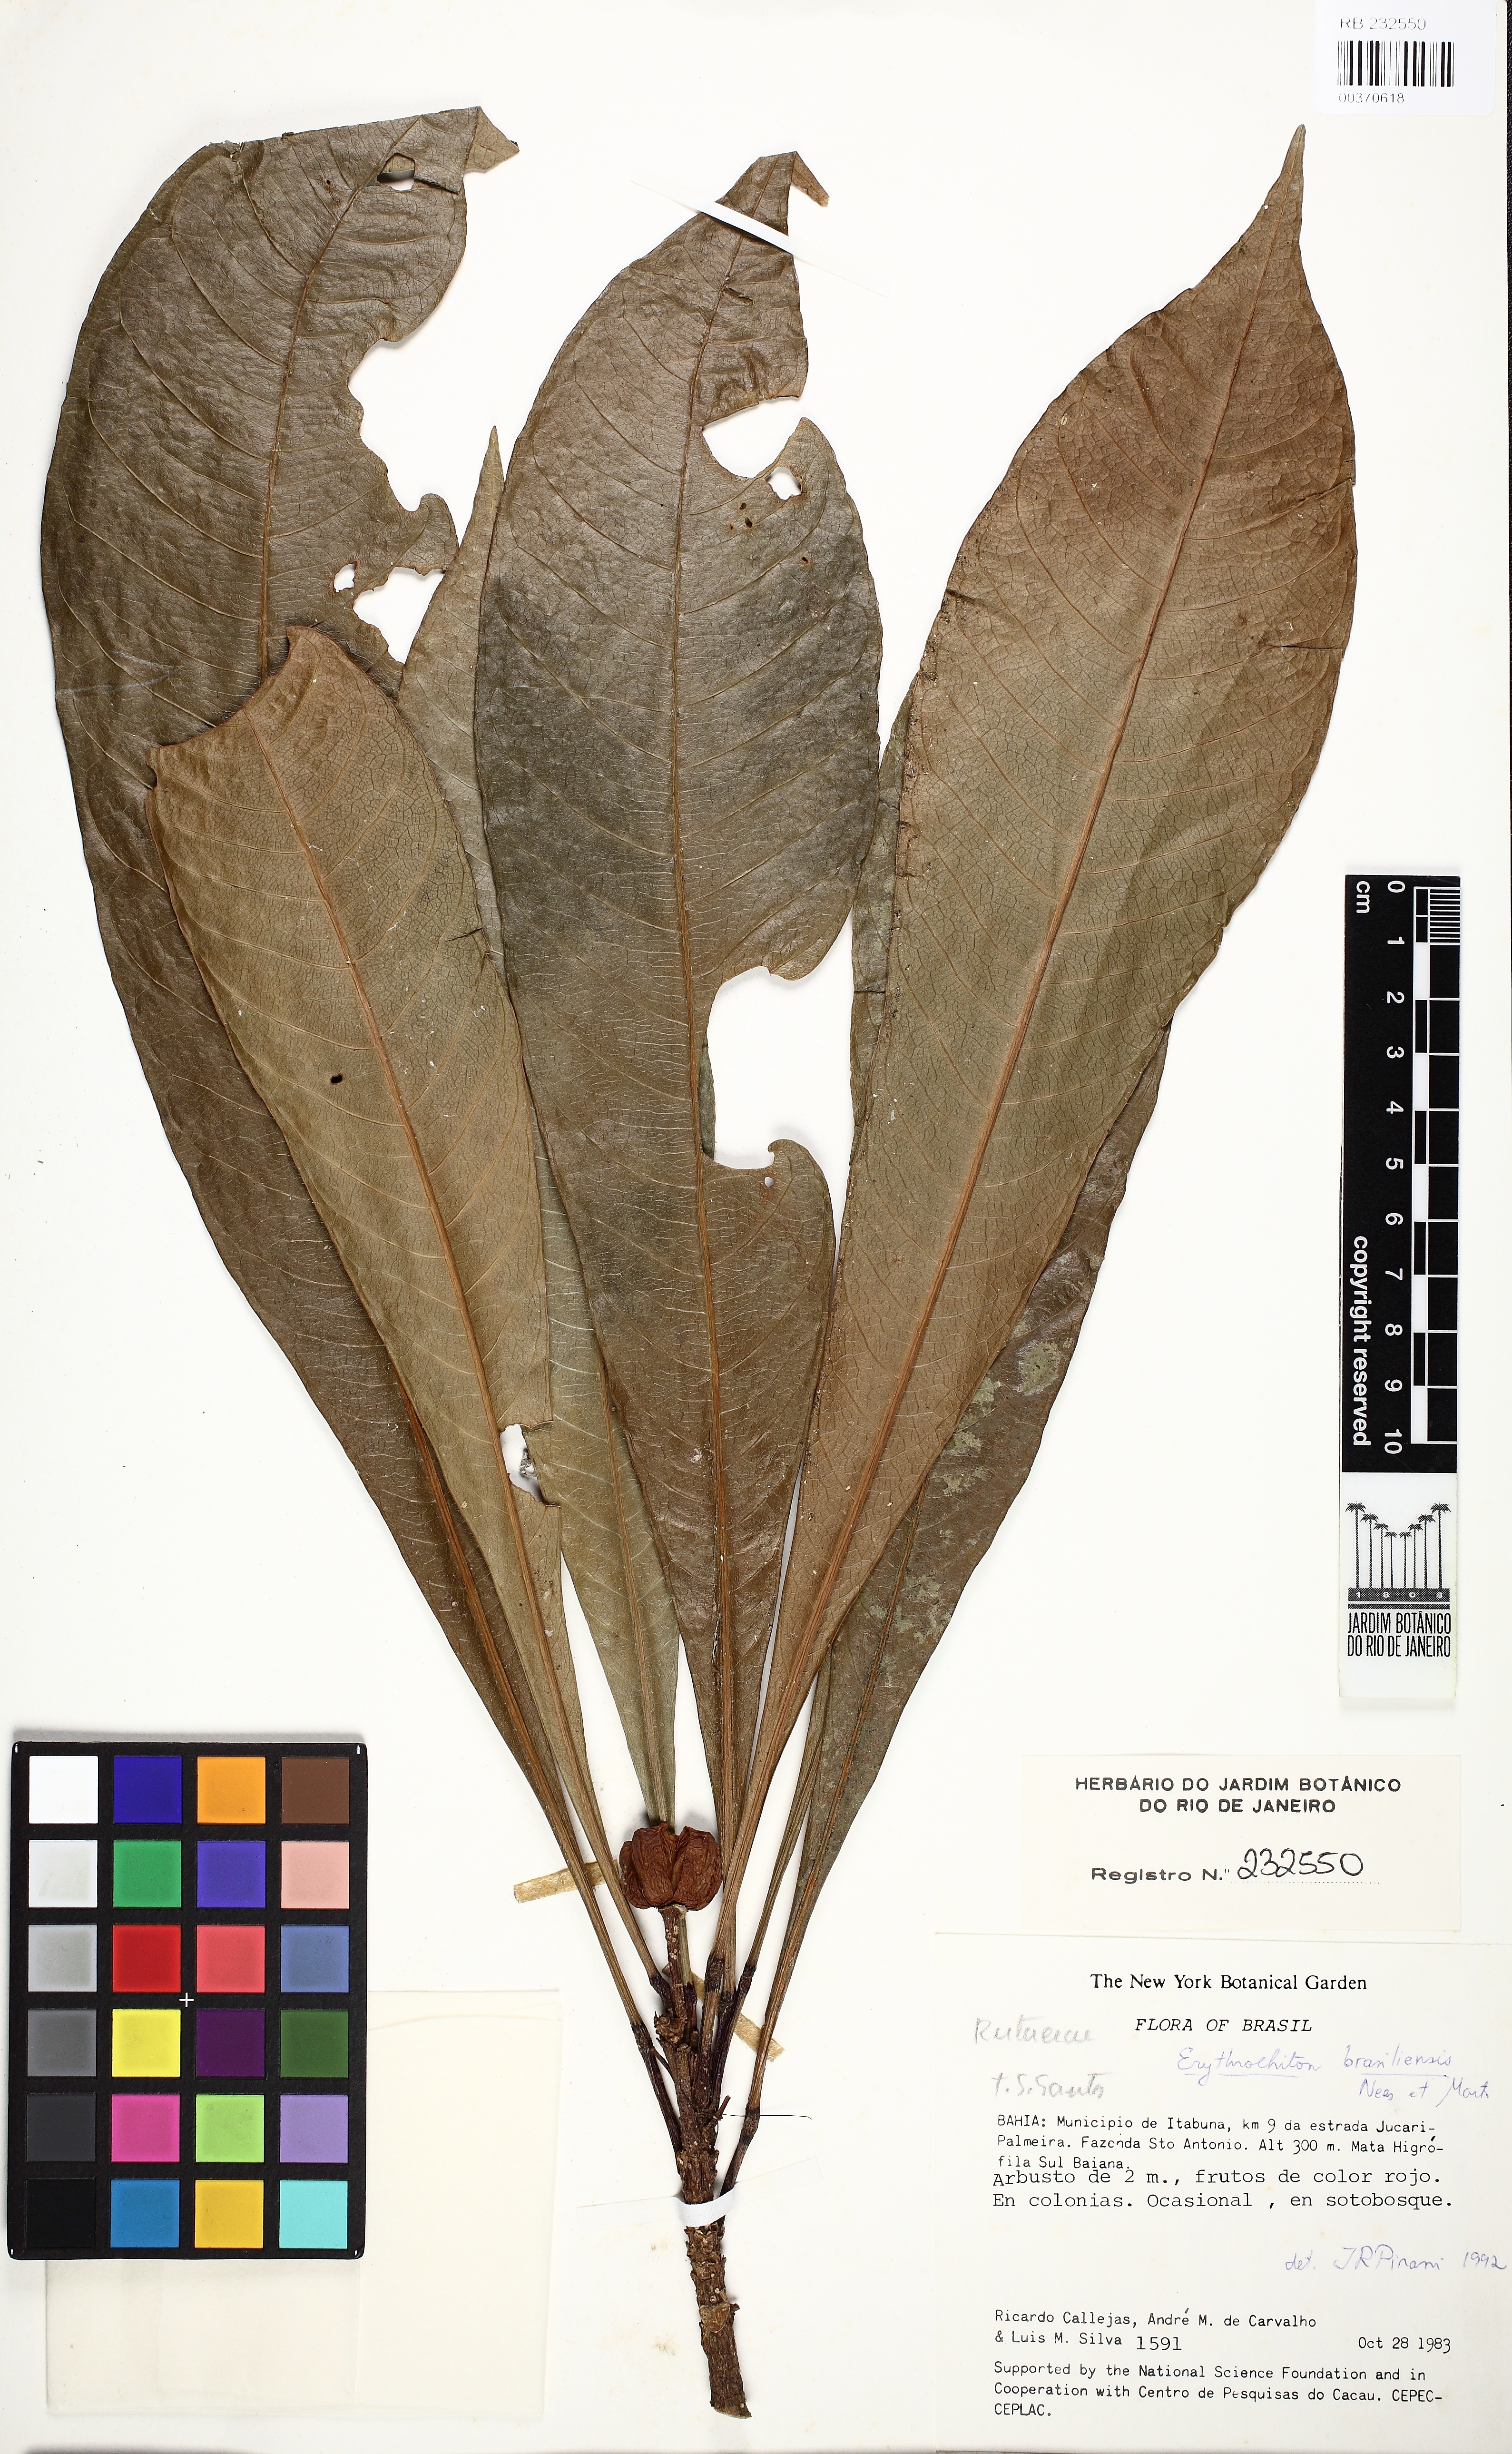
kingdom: Plantae
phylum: Tracheophyta
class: Magnoliopsida
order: Sapindales
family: Rutaceae
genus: Erythrochiton
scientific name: Erythrochiton brasiliensis
